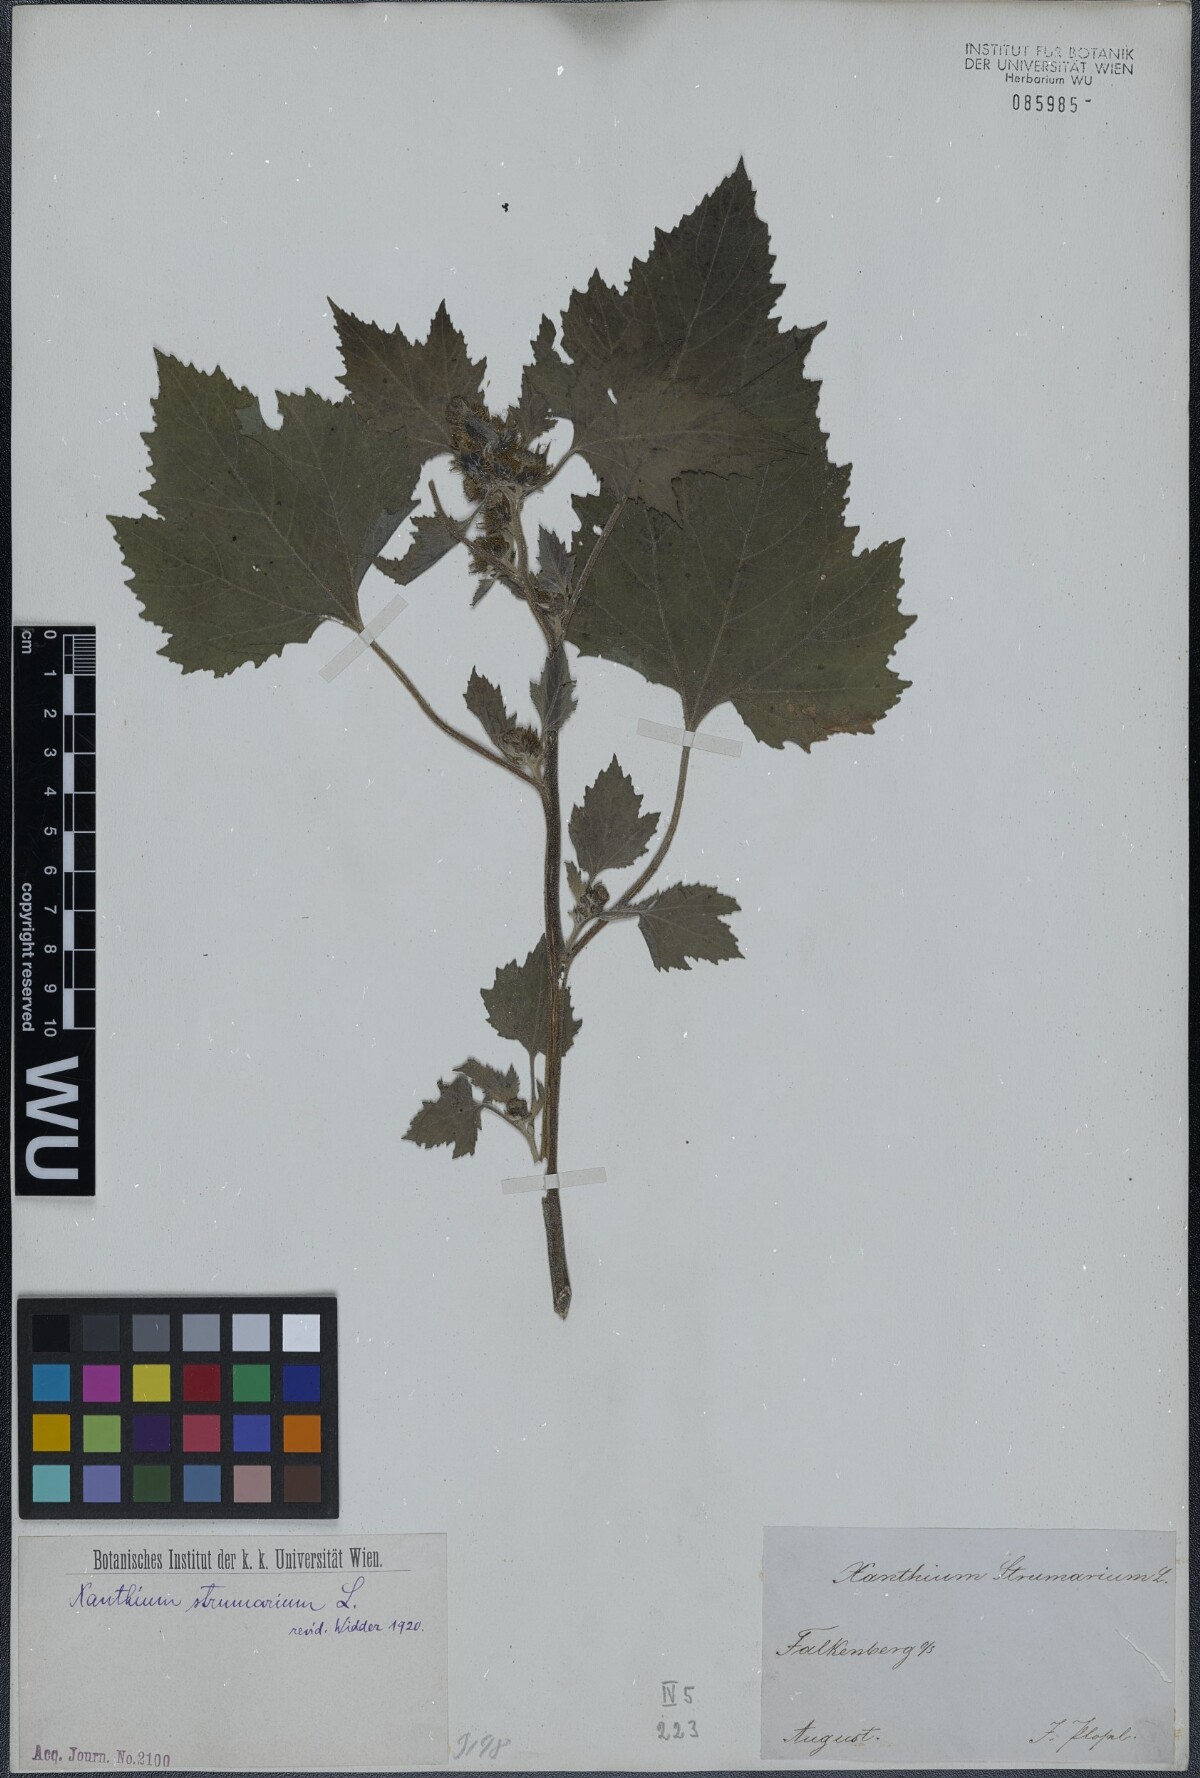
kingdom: Plantae
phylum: Tracheophyta
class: Magnoliopsida
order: Asterales
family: Asteraceae
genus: Xanthium
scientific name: Xanthium strumarium
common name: Rough cocklebur
